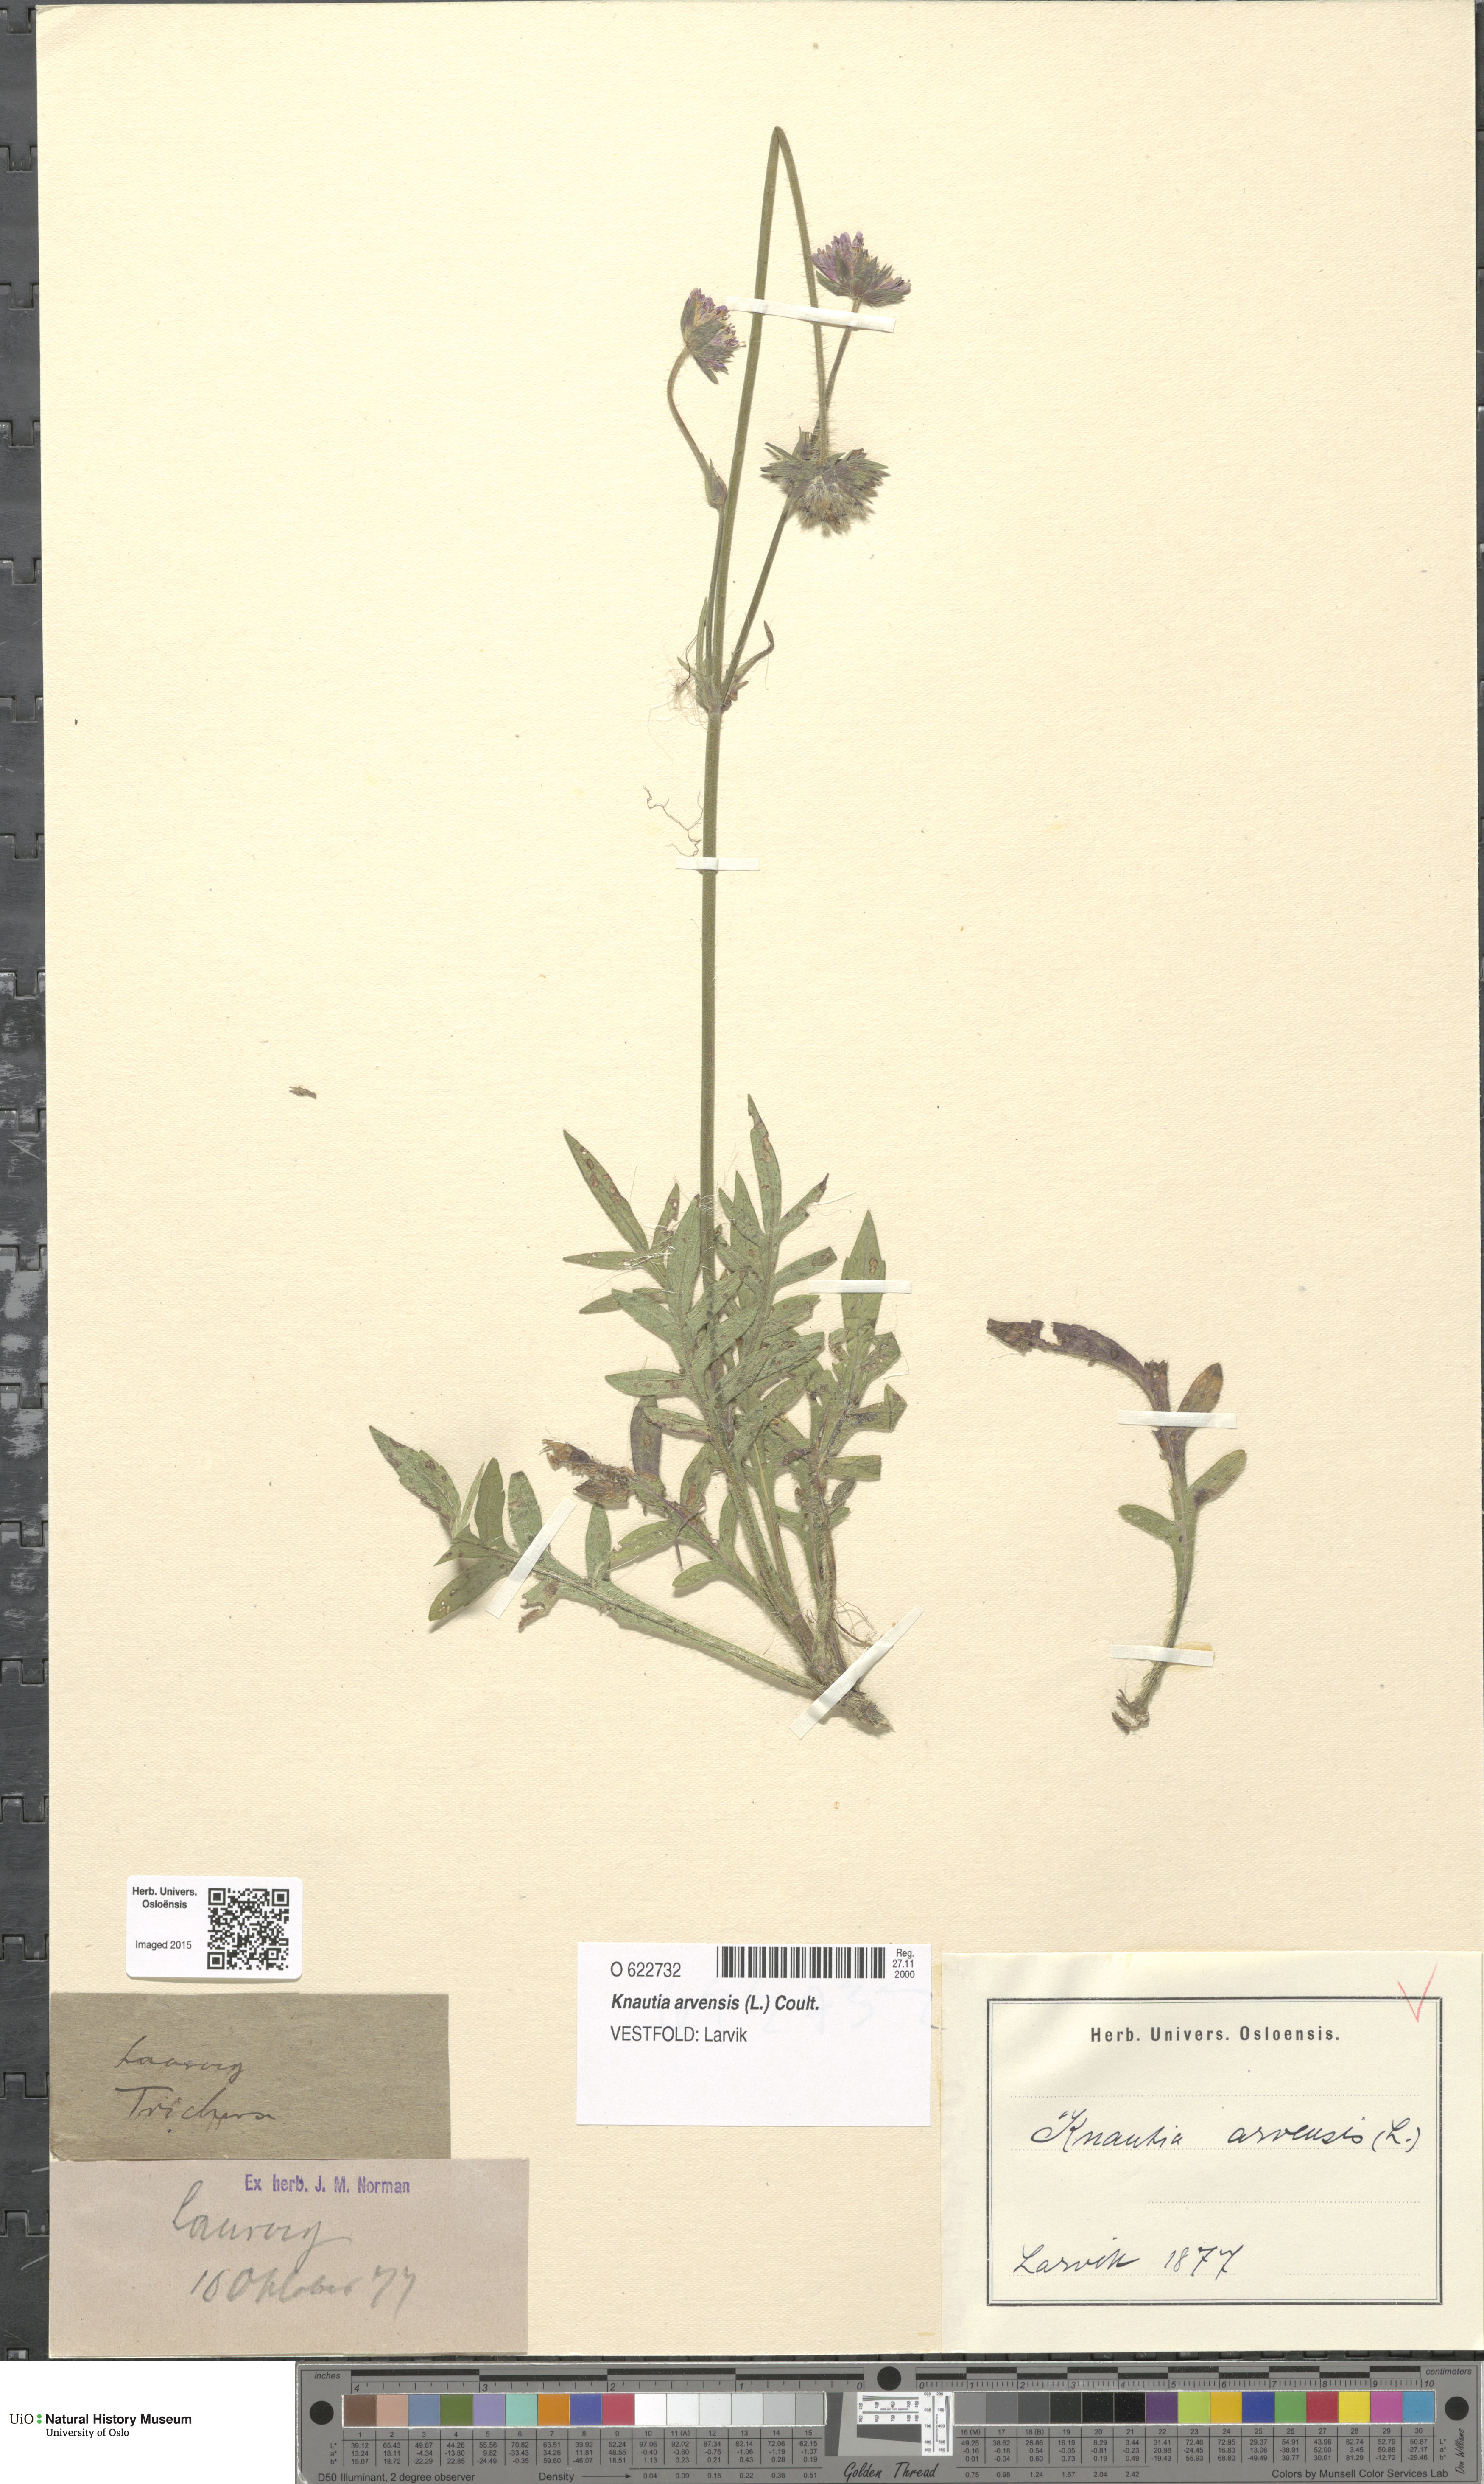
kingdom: Plantae
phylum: Tracheophyta
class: Magnoliopsida
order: Dipsacales
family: Caprifoliaceae
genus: Knautia
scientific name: Knautia arvensis
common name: Field scabiosa
